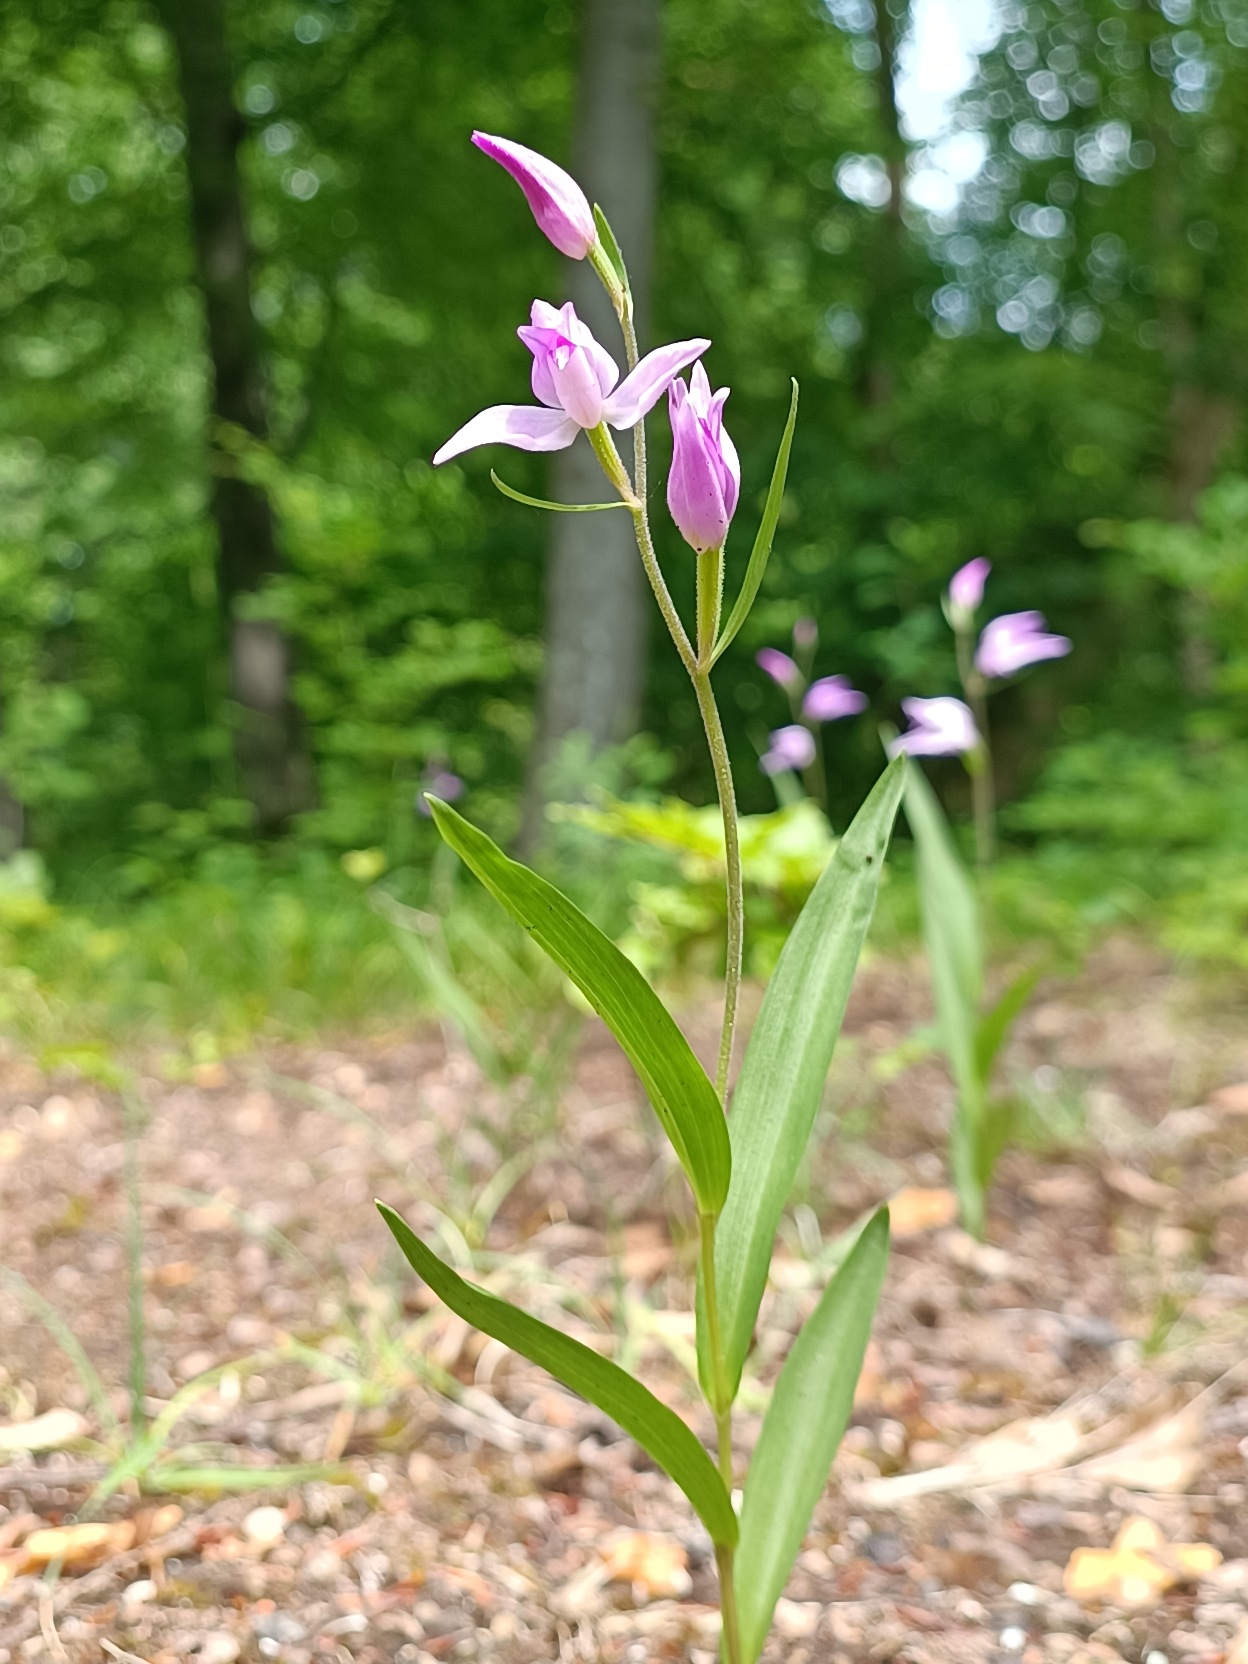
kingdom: Plantae
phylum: Tracheophyta
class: Liliopsida
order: Asparagales
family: Orchidaceae
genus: Cephalanthera
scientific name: Cephalanthera rubra
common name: Rød skovlilje
